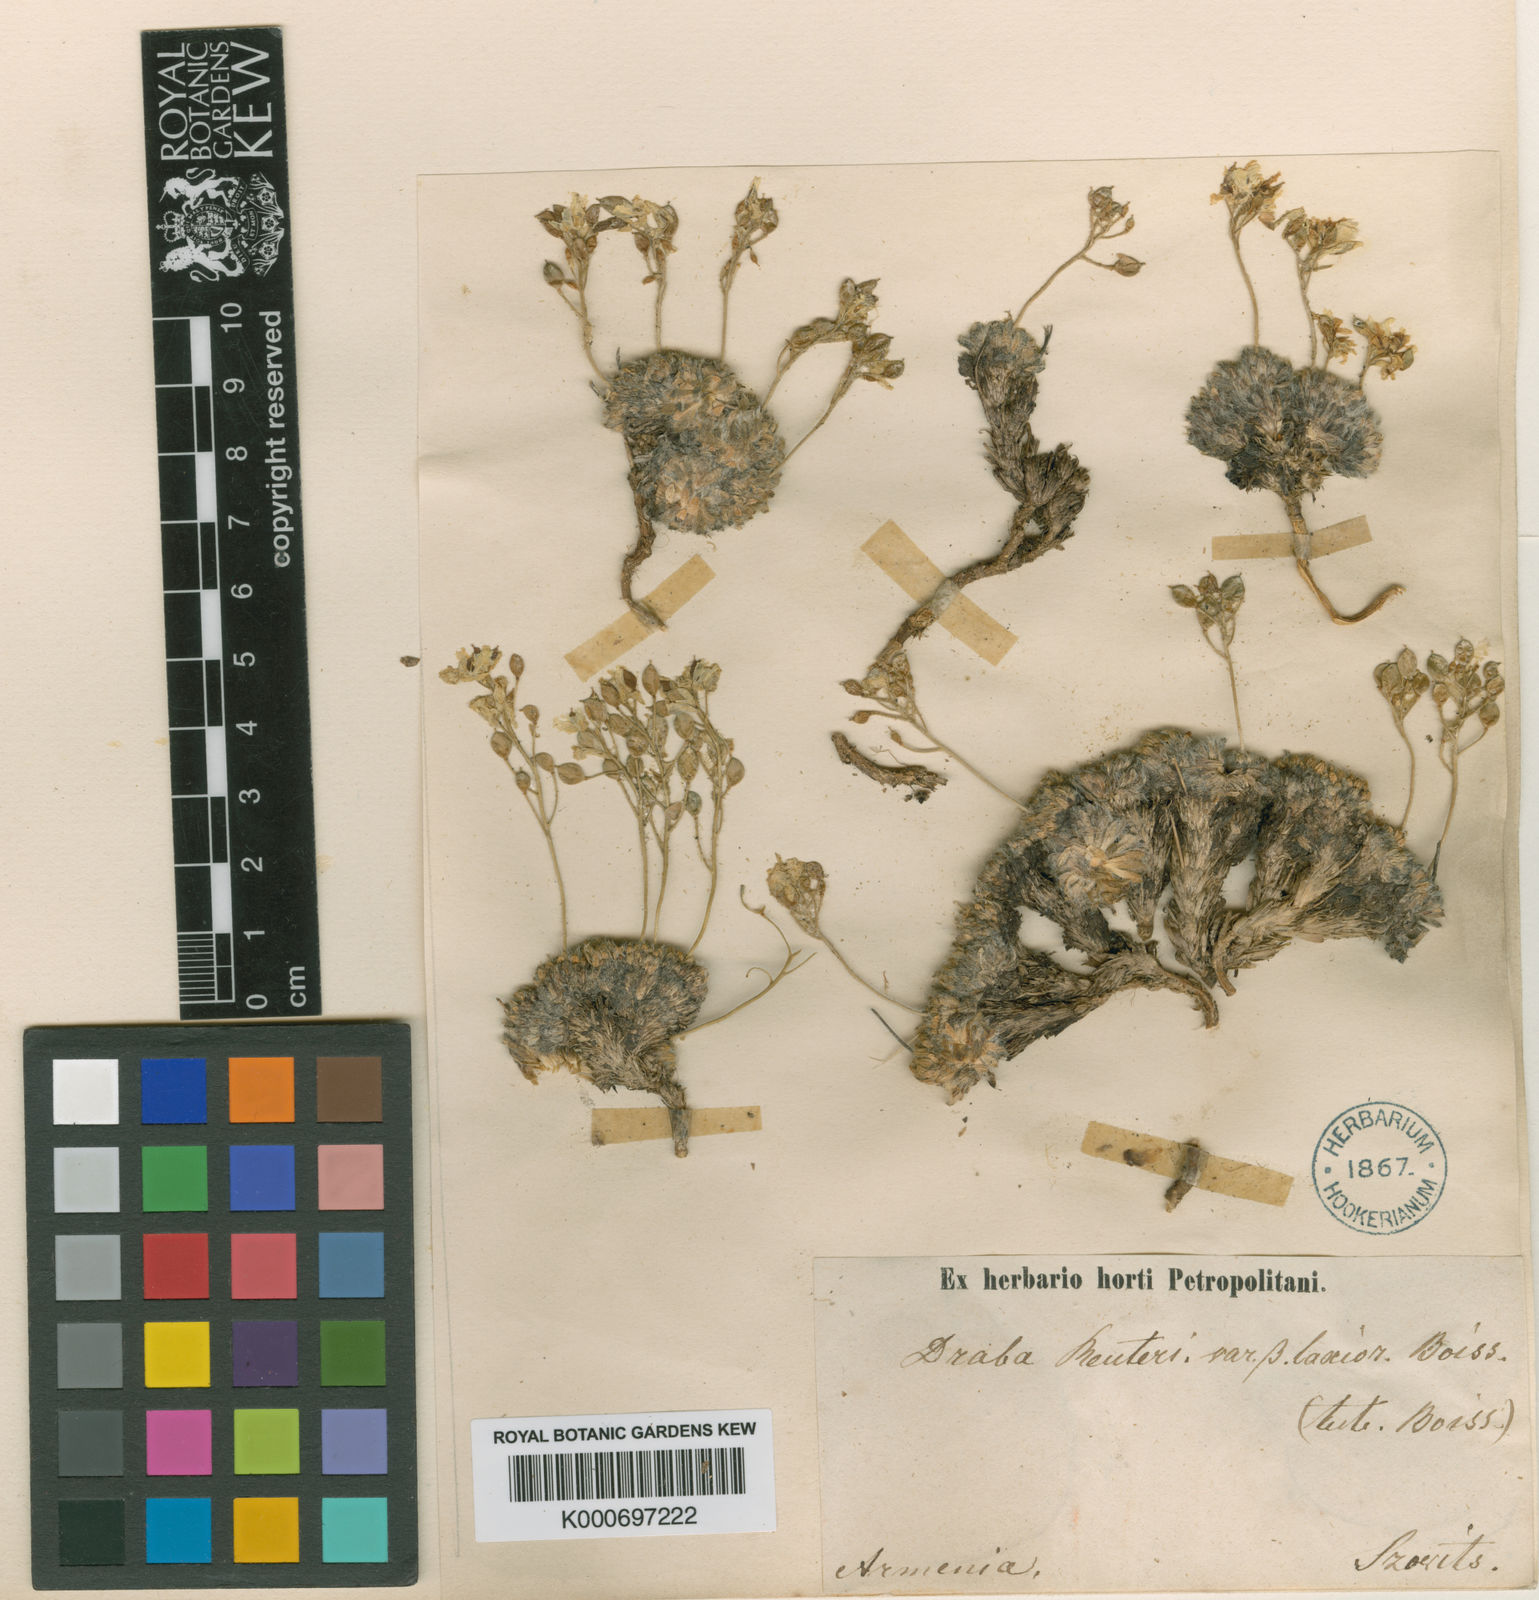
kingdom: Plantae
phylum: Tracheophyta
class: Magnoliopsida
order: Brassicales
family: Brassicaceae
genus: Draba
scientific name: Draba polytricha
